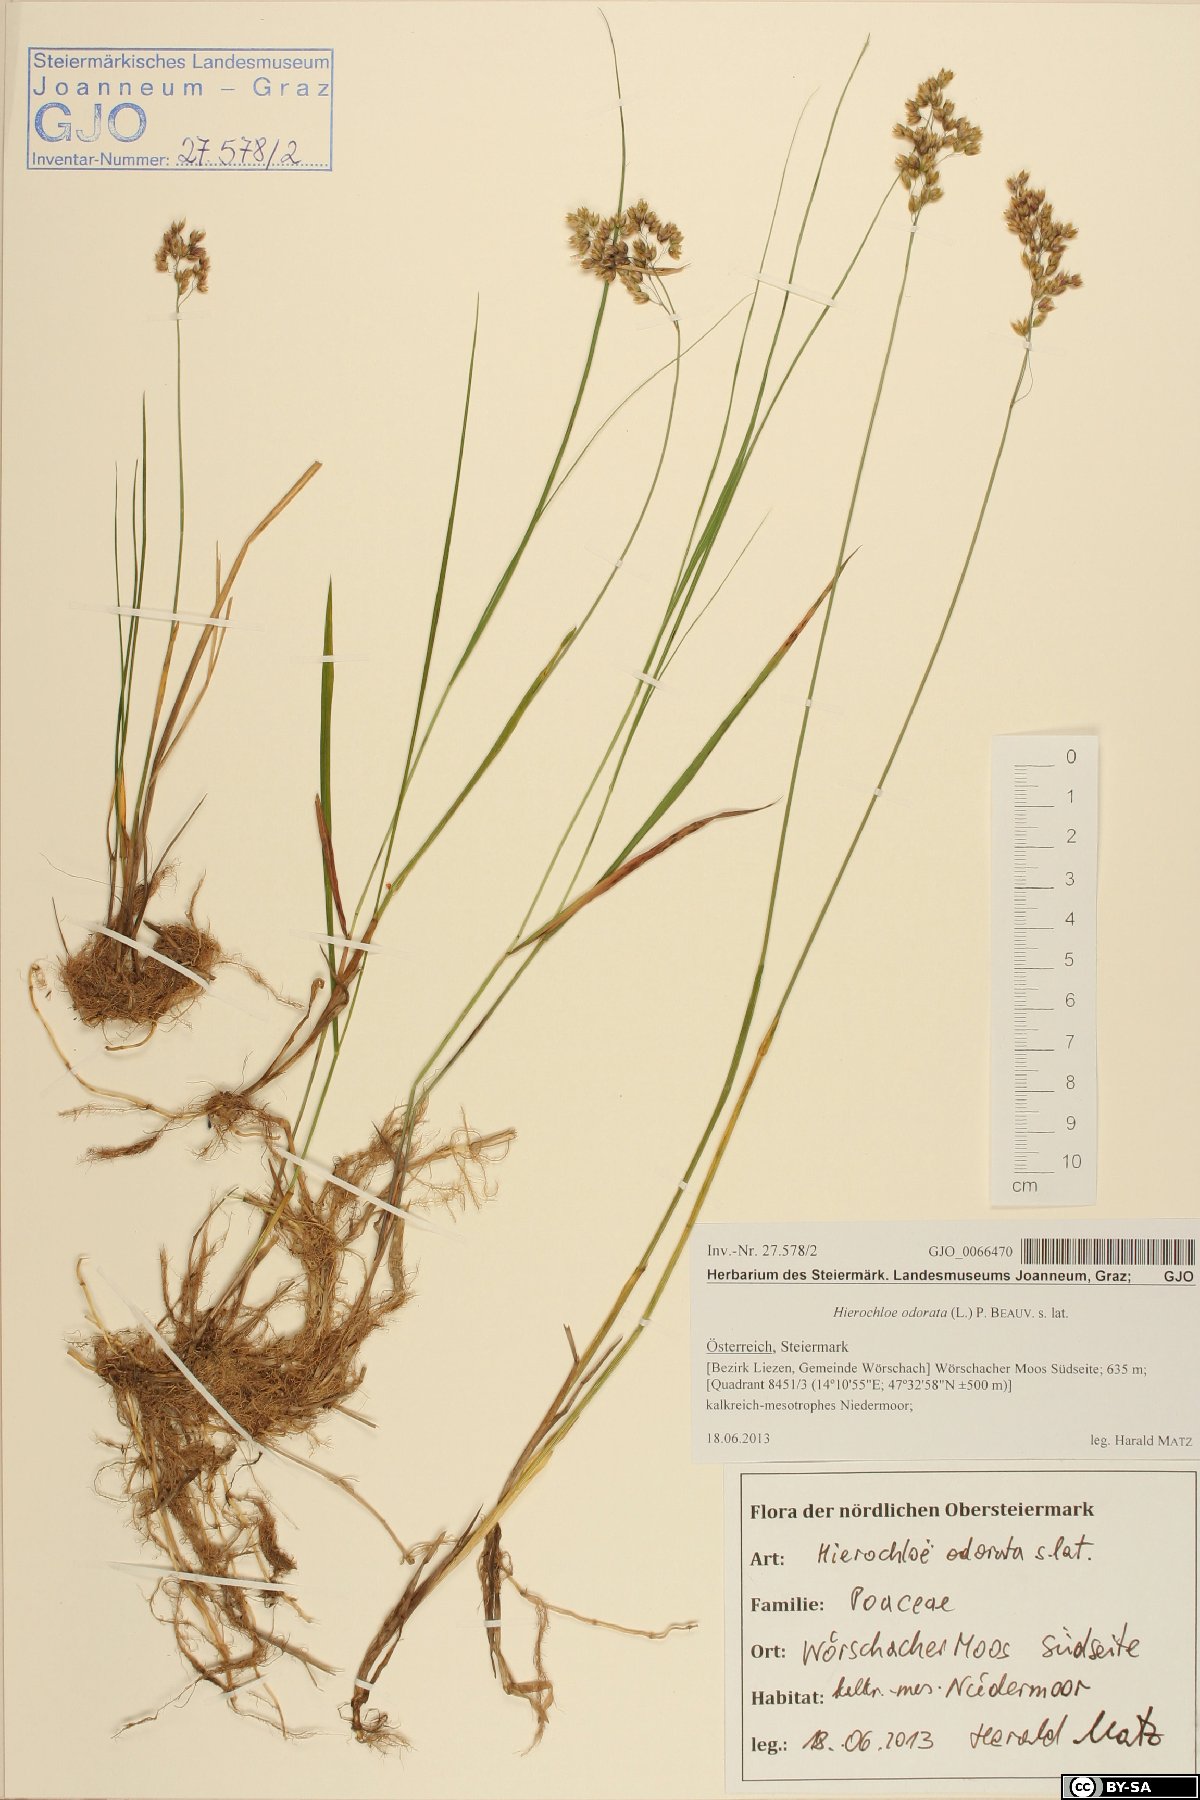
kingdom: Plantae
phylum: Tracheophyta
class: Liliopsida
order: Poales
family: Poaceae
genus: Anthoxanthum
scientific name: Anthoxanthum nitens
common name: Holy grass
